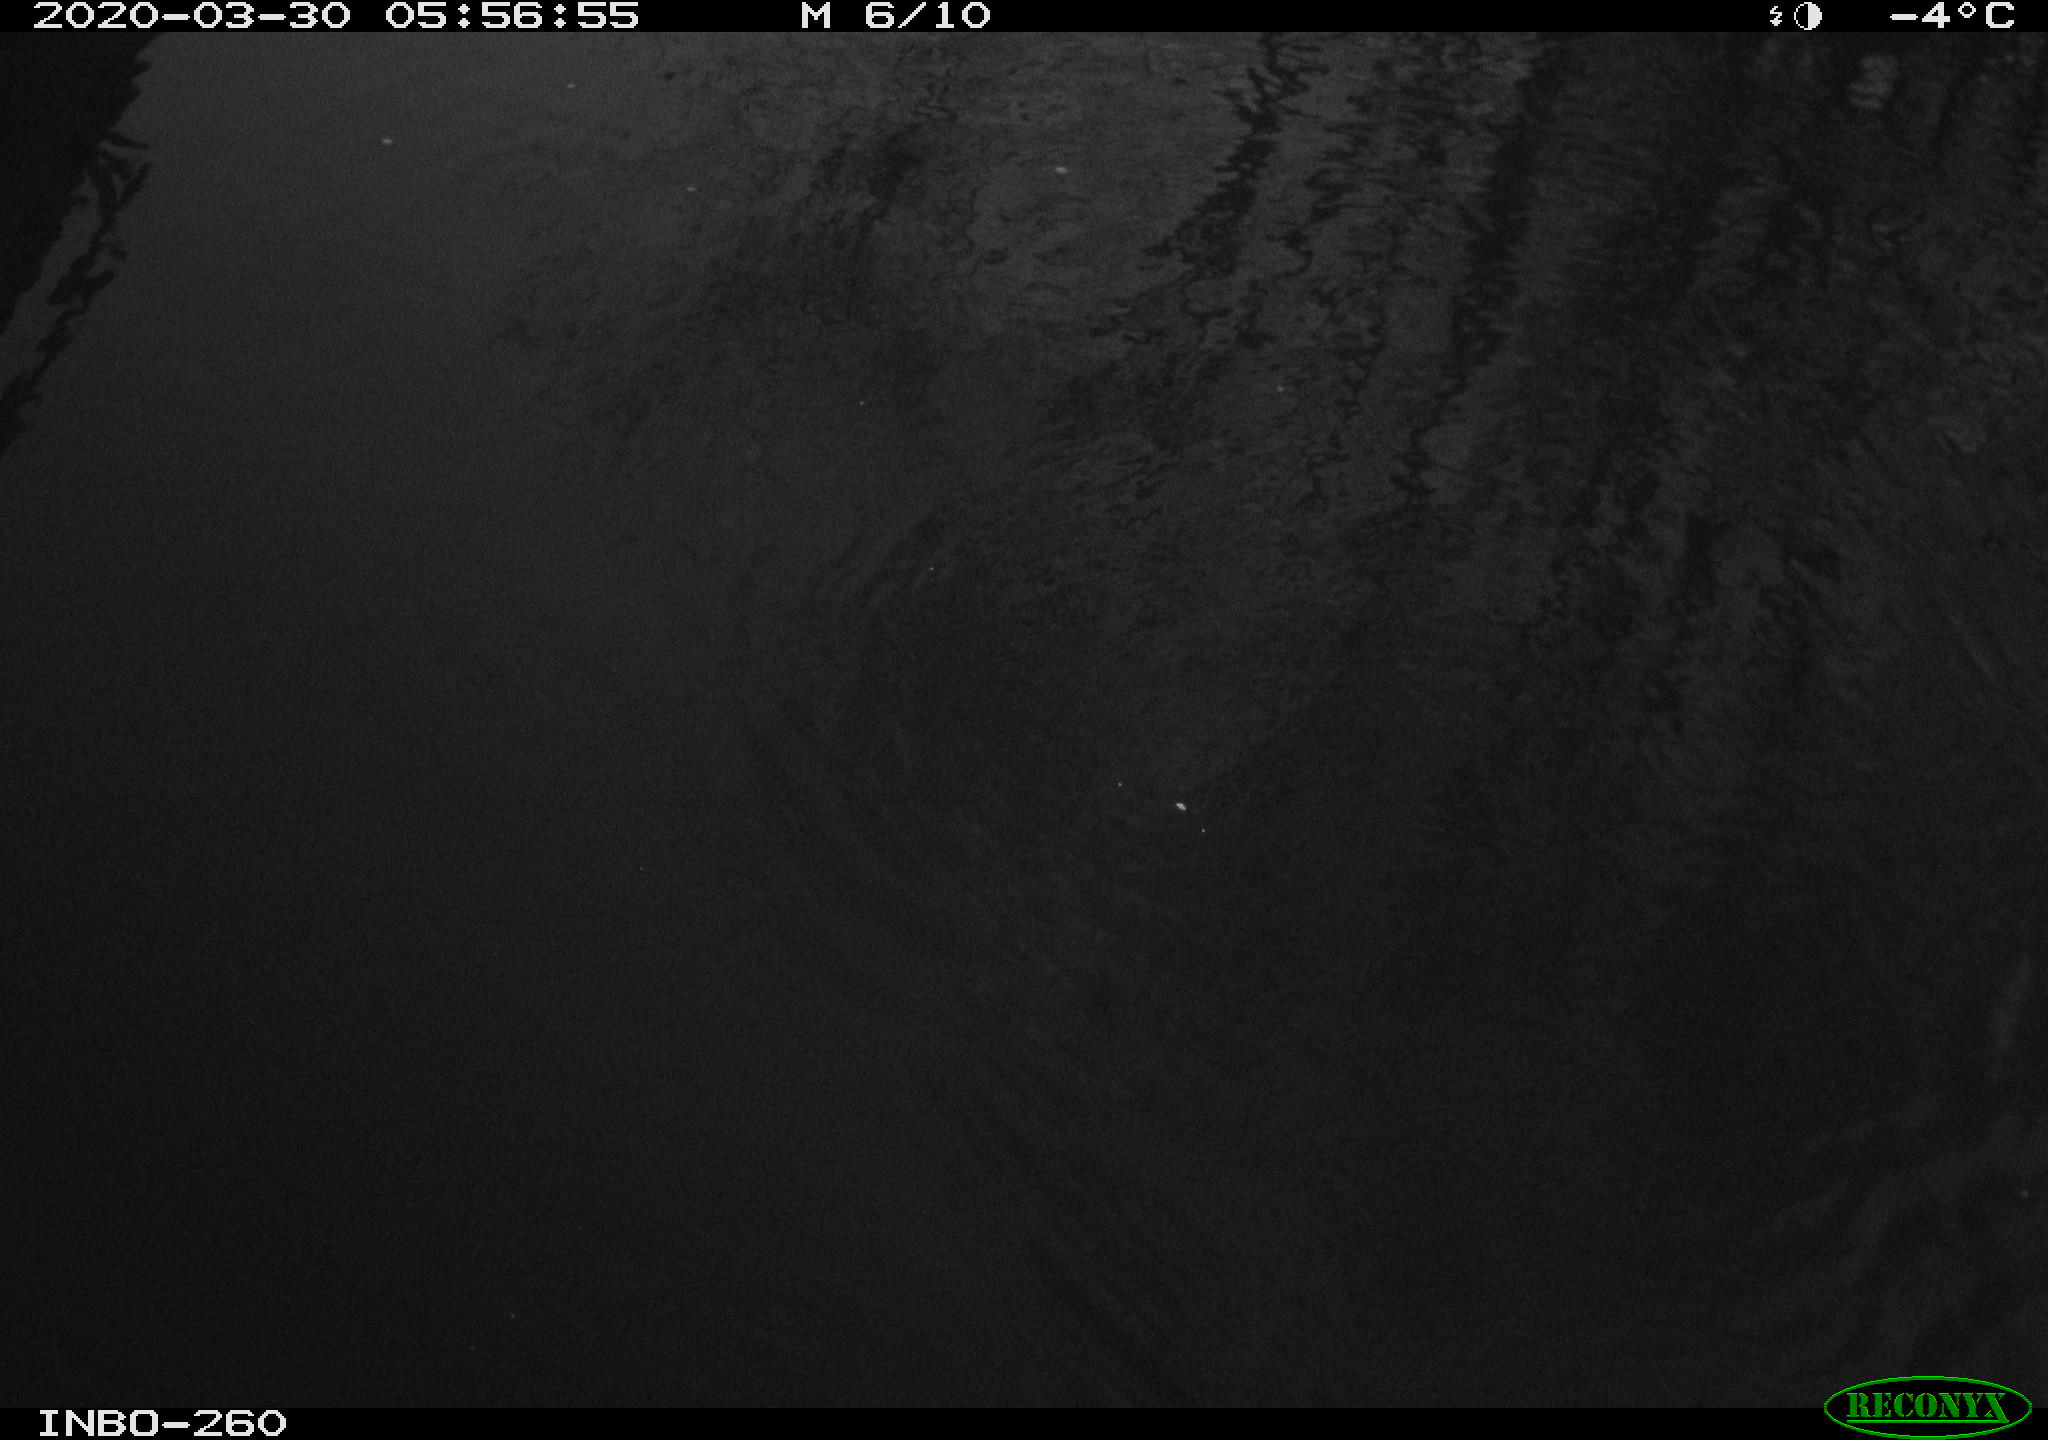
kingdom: Animalia
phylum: Chordata
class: Aves
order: Anseriformes
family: Anatidae
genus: Anas
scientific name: Anas platyrhynchos
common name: Mallard
